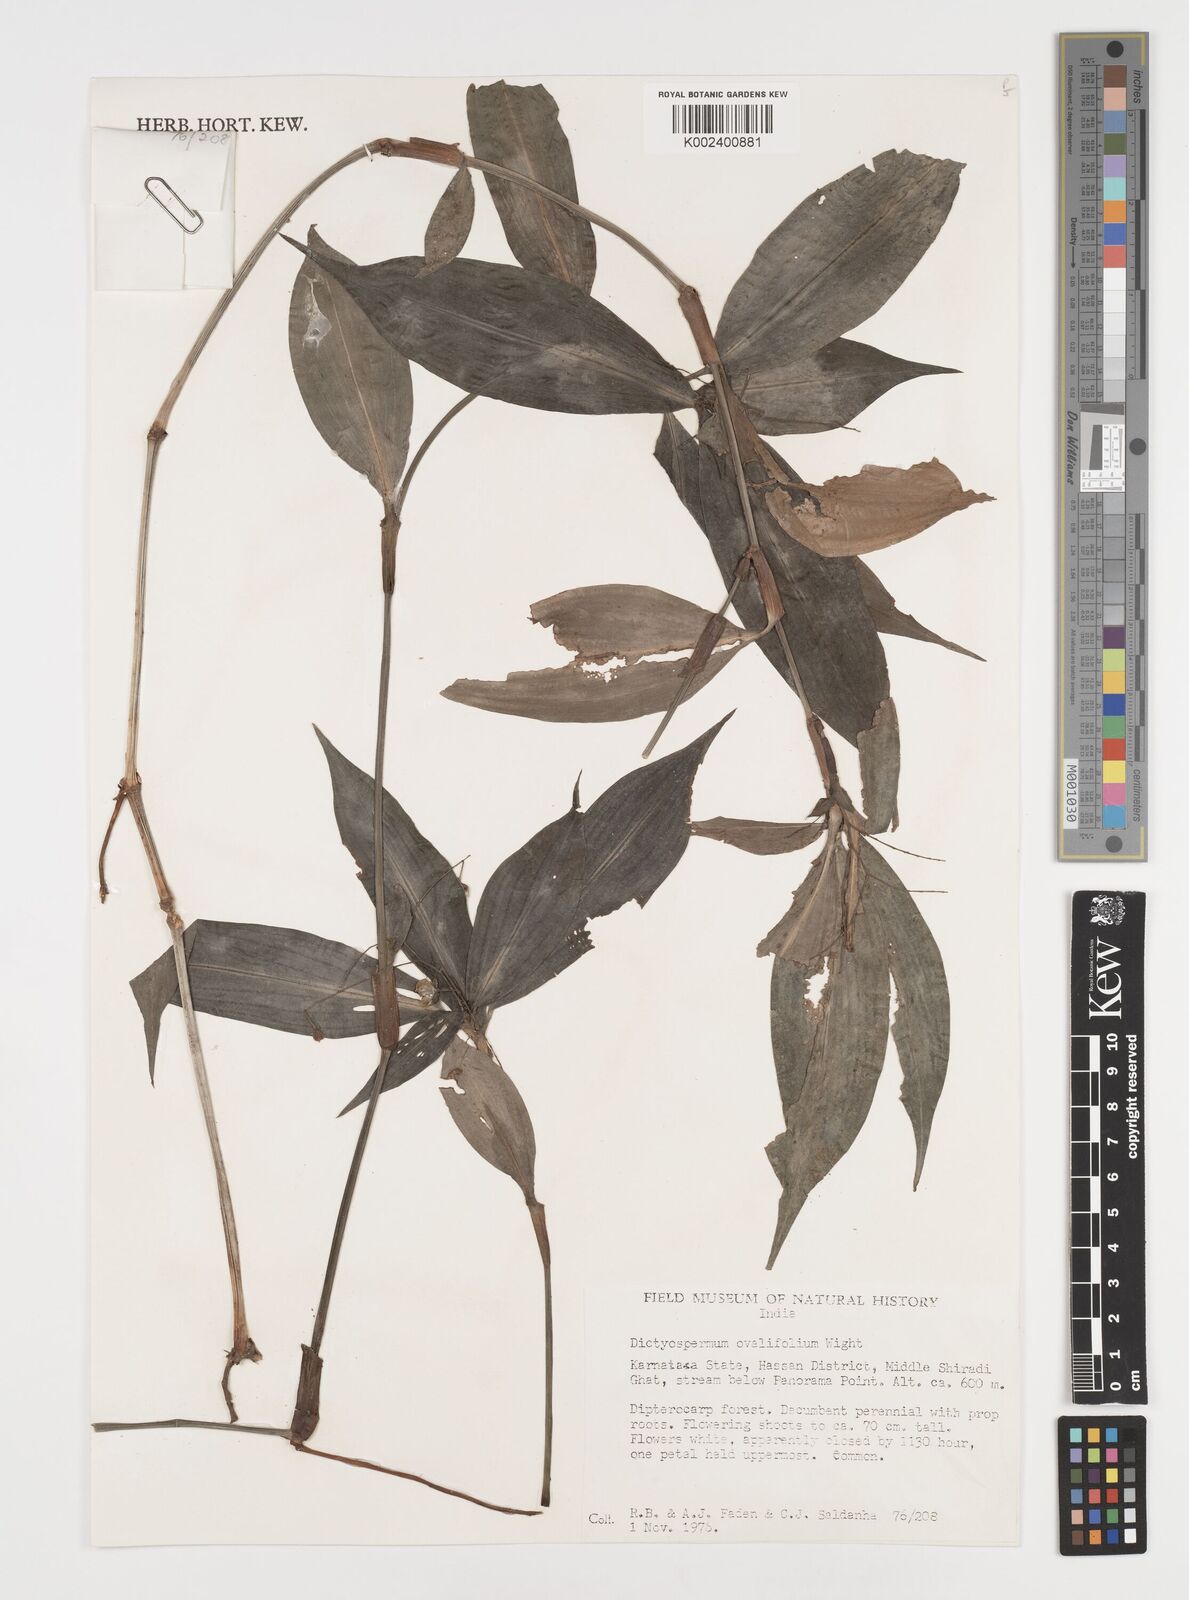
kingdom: Plantae
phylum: Tracheophyta
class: Liliopsida
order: Commelinales
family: Commelinaceae
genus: Dictyospermum
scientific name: Dictyospermum ovalifolium
